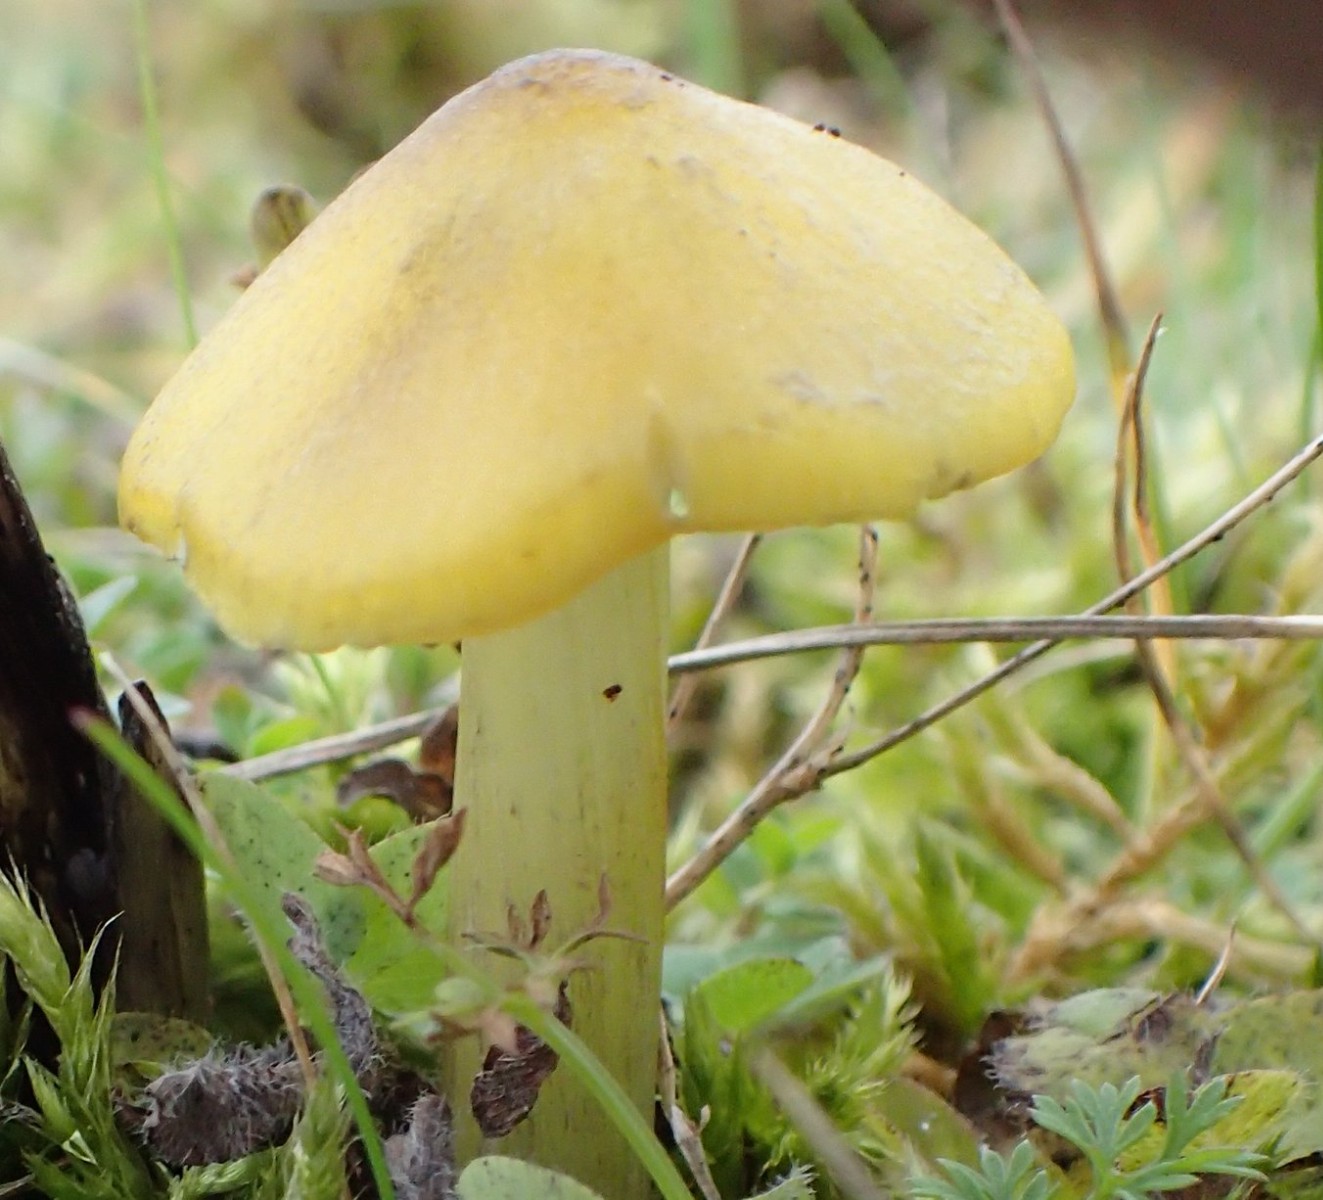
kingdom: Fungi
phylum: Basidiomycota
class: Agaricomycetes
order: Agaricales
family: Hygrophoraceae
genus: Hygrocybe
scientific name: Hygrocybe conica
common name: Blackening wax-cap
